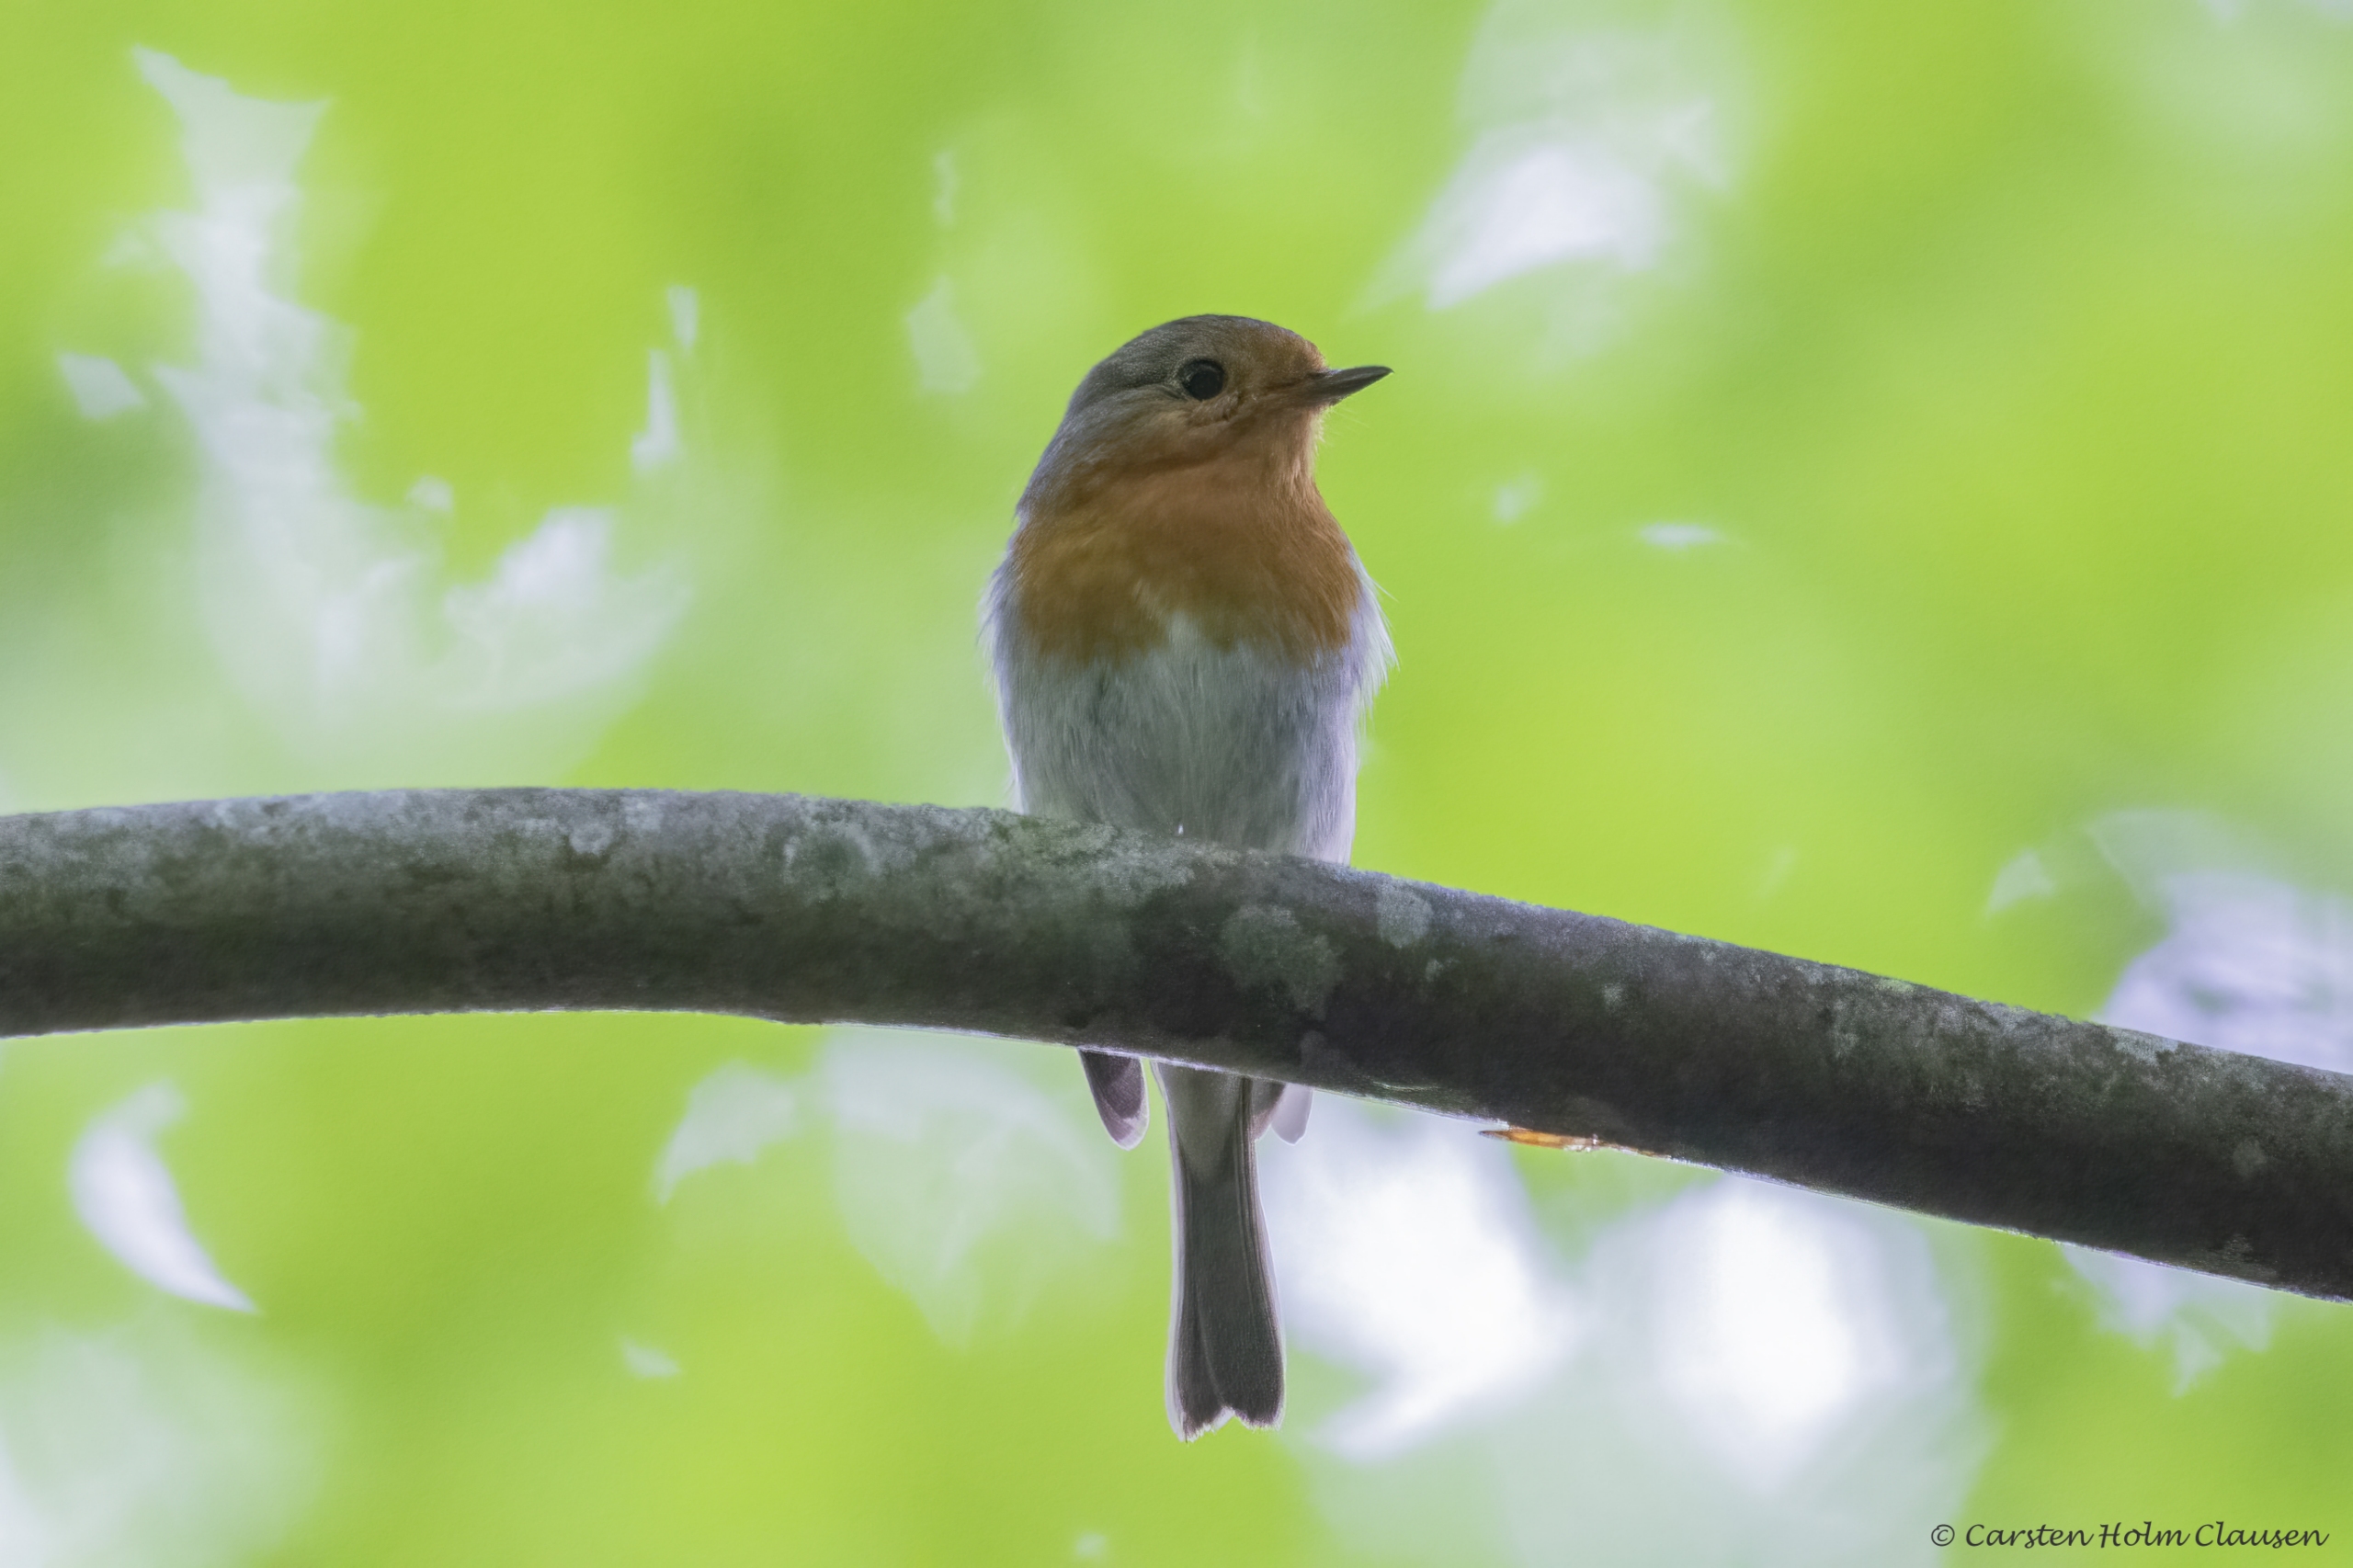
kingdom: Animalia
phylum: Chordata
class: Aves
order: Passeriformes
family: Muscicapidae
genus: Erithacus
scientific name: Erithacus rubecula
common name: Rødhals/rødkælk
